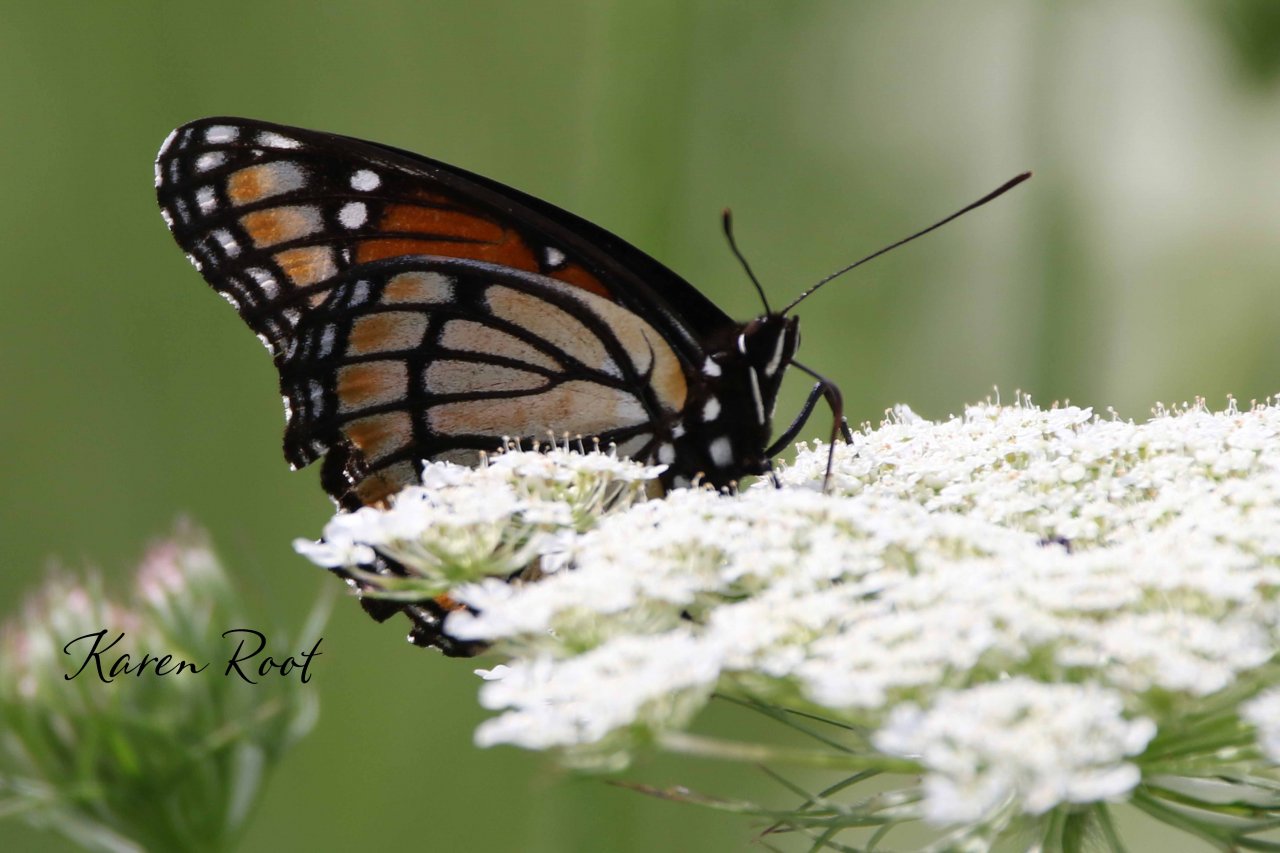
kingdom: Animalia
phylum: Arthropoda
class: Insecta
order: Lepidoptera
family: Nymphalidae
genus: Limenitis
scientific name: Limenitis archippus
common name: Viceroy
